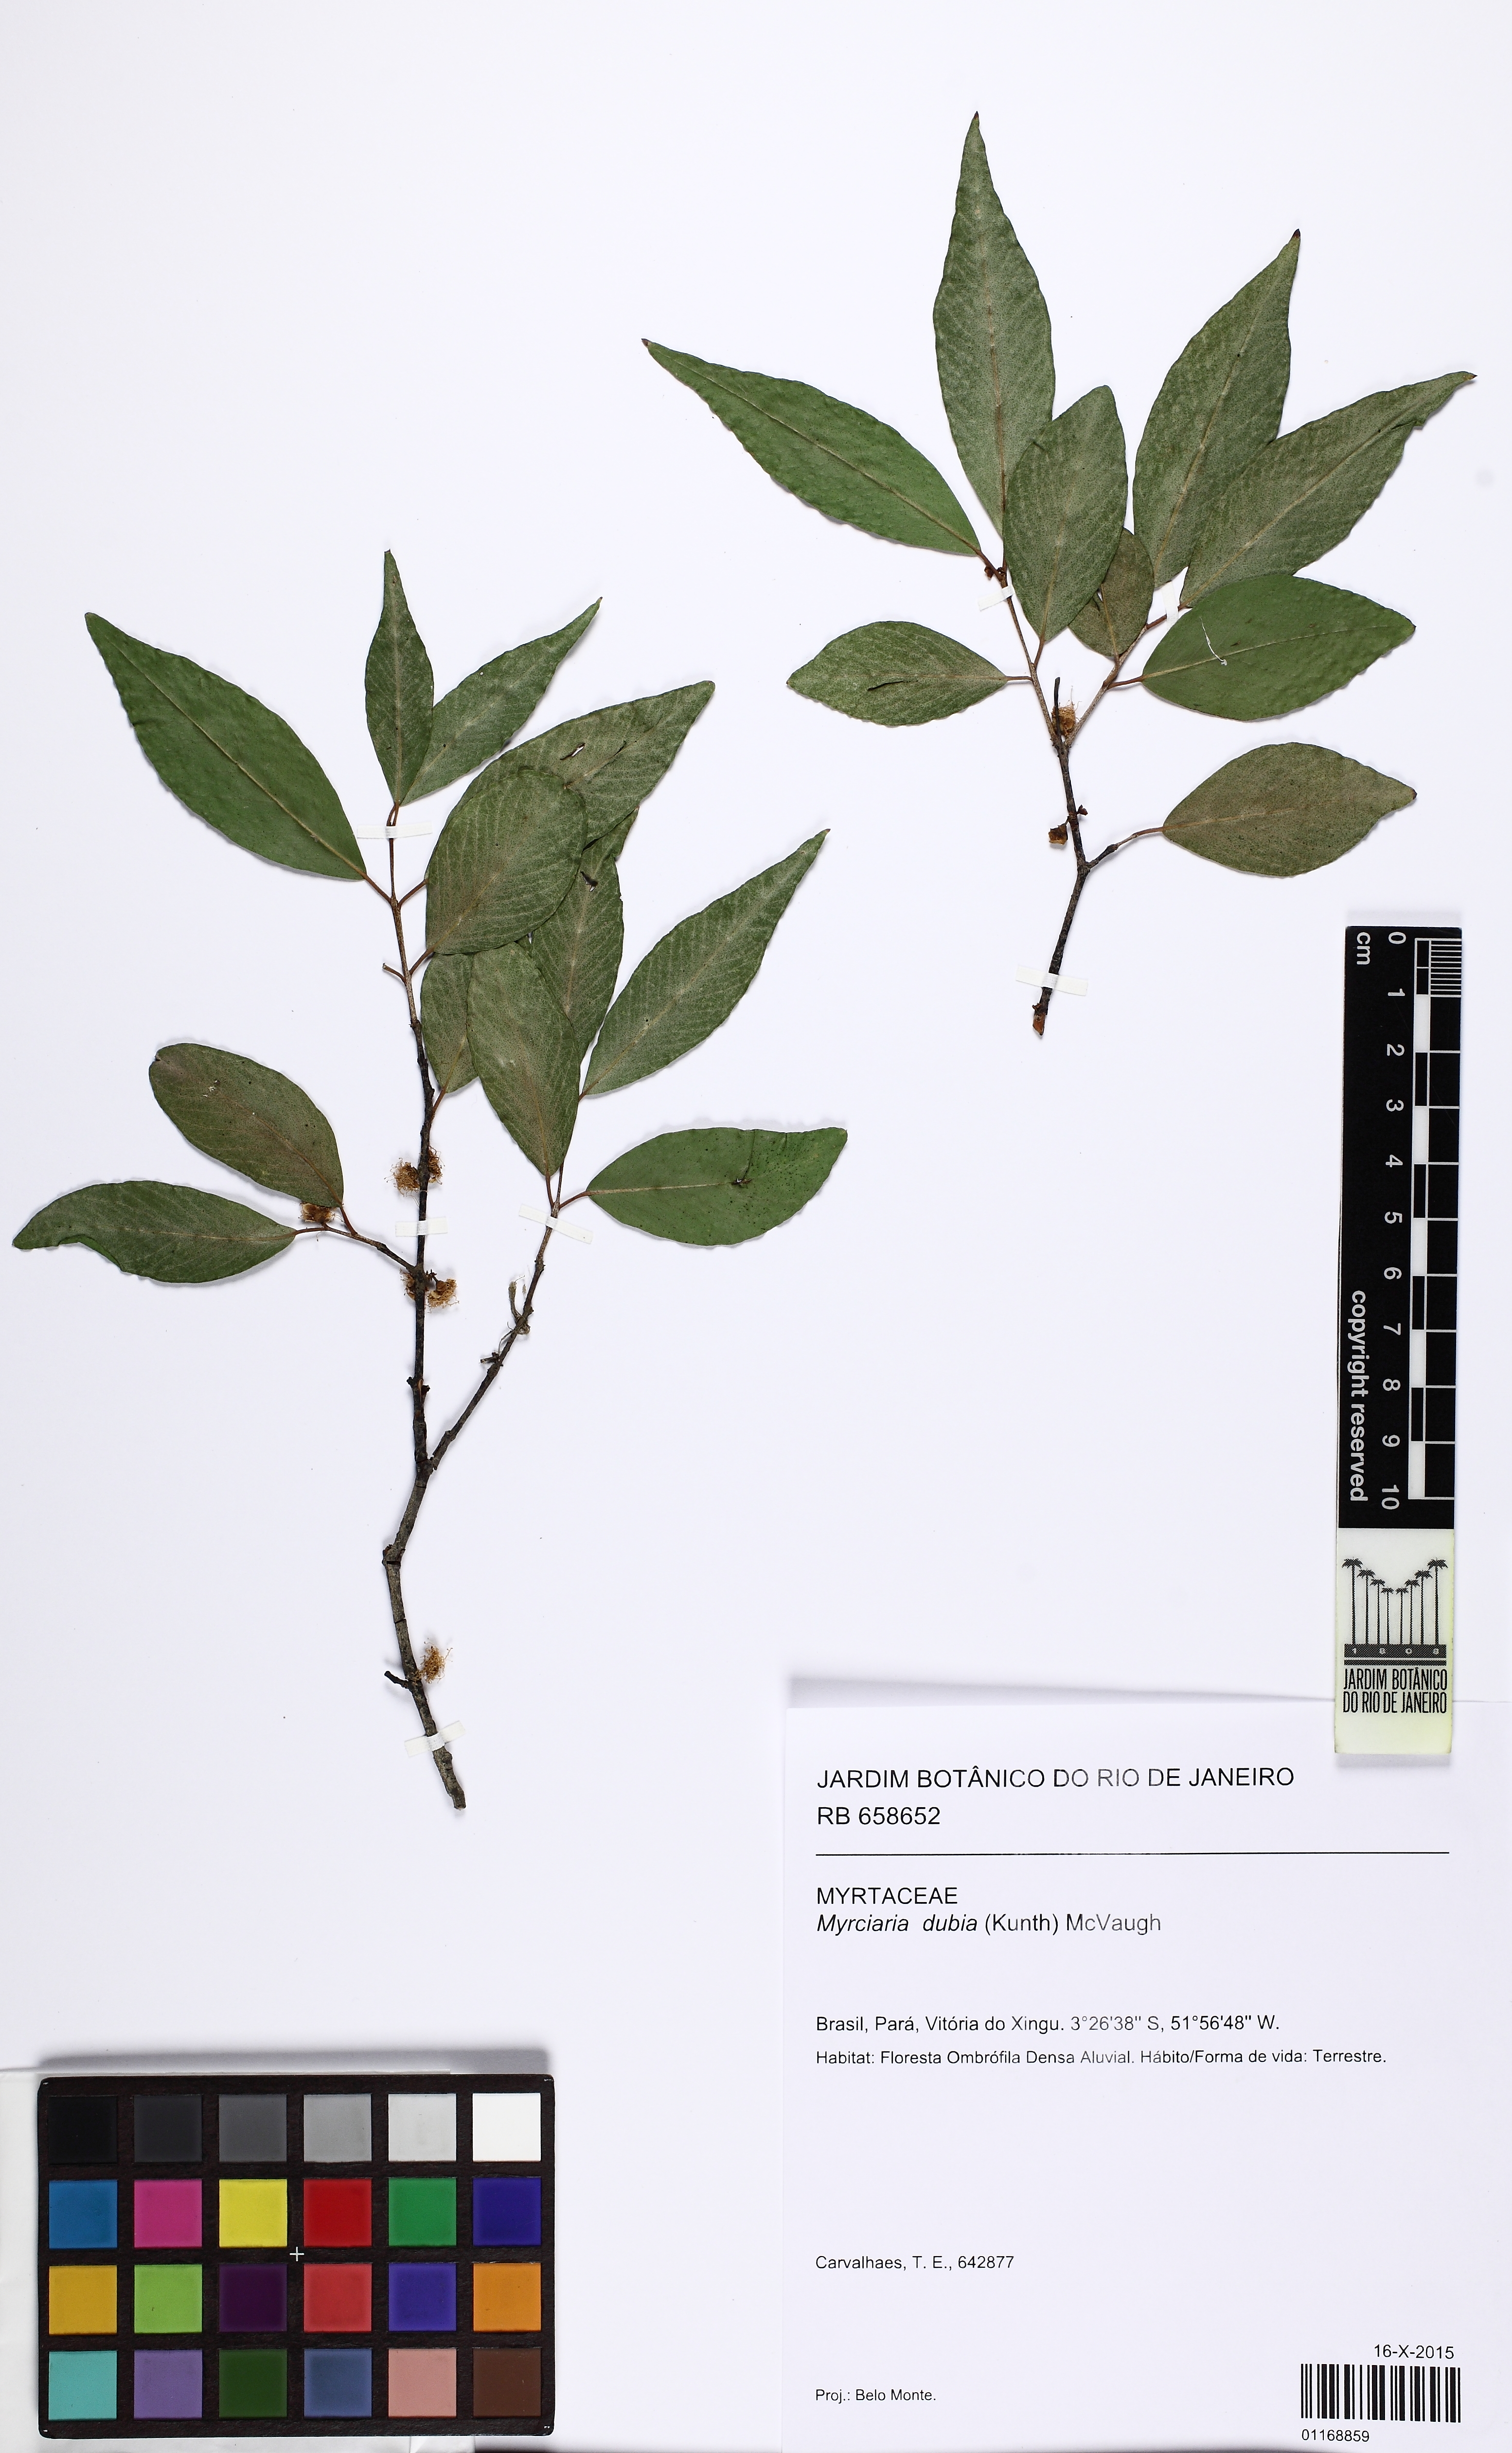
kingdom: Plantae
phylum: Tracheophyta
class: Magnoliopsida
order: Myrtales
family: Myrtaceae
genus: Myrciaria
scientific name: Myrciaria dubia
